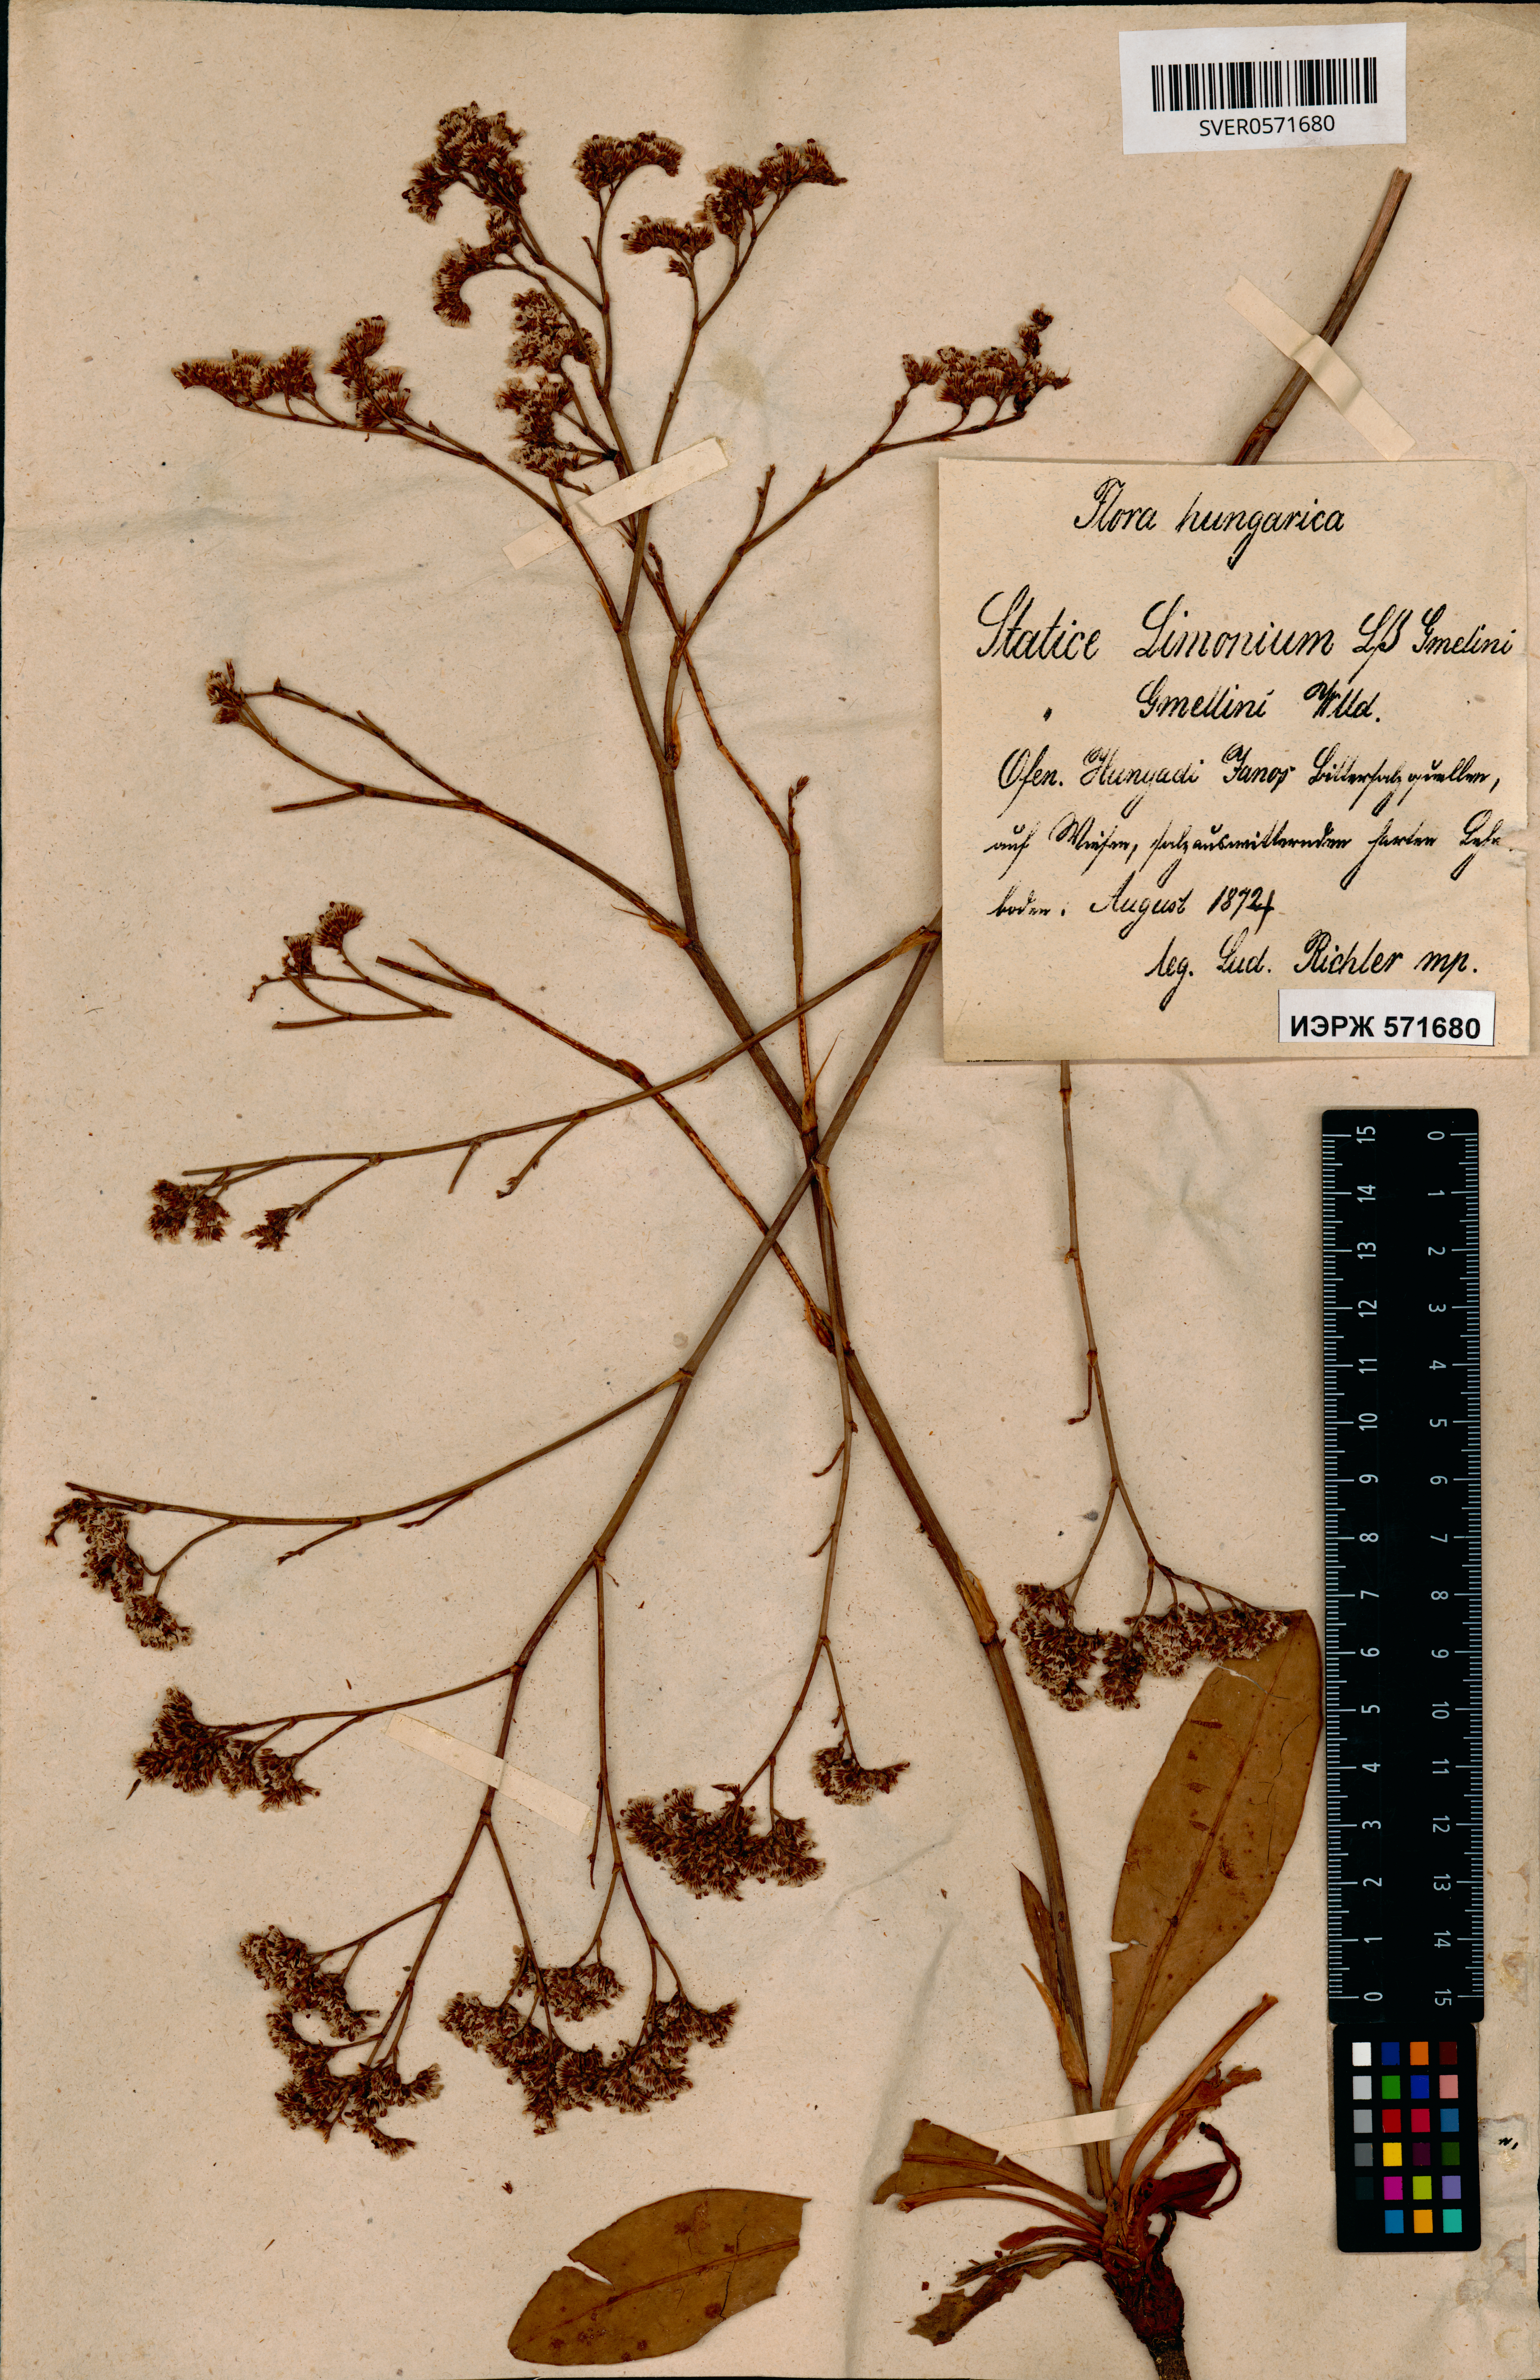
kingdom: Plantae
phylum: Tracheophyta
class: Magnoliopsida
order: Caryophyllales
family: Plumbaginaceae
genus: Limonium
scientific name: Limonium gmelini
